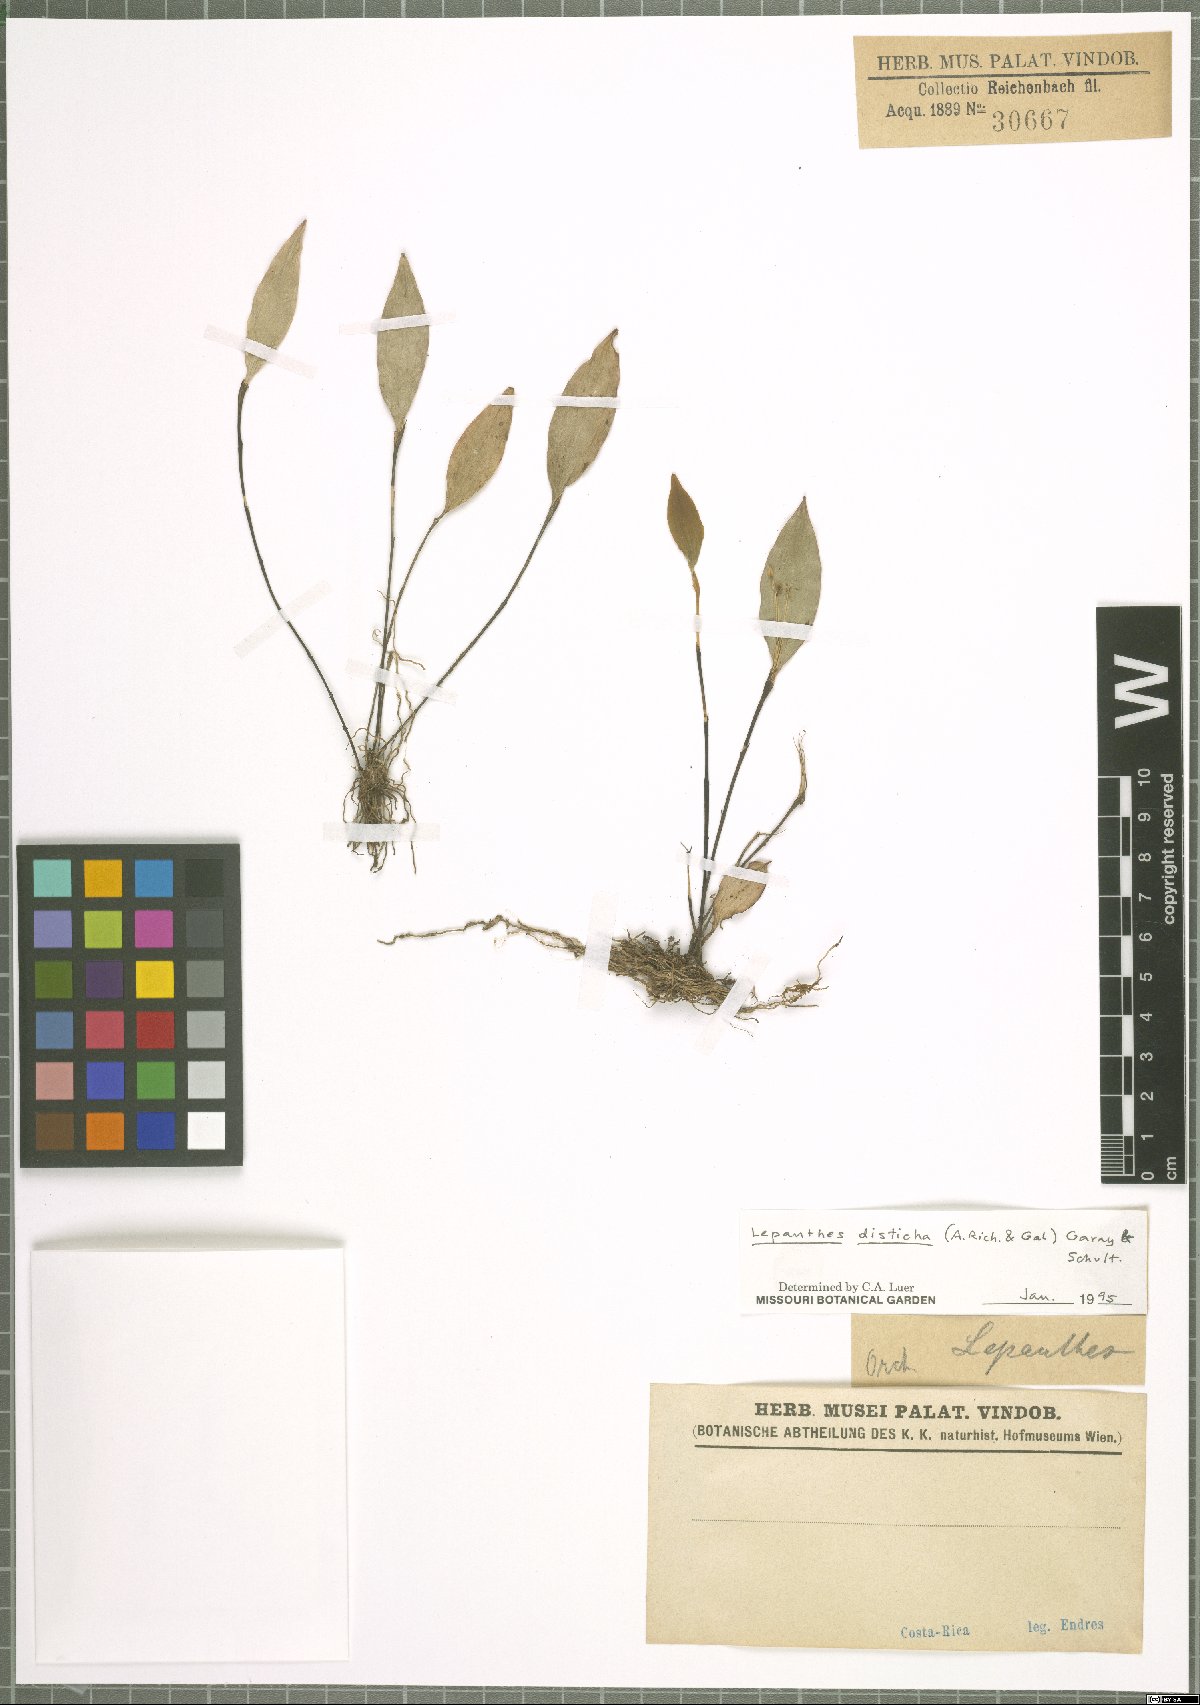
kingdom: Plantae
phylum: Tracheophyta
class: Liliopsida
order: Asparagales
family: Orchidaceae
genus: Lepanthes
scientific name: Lepanthes disticha
